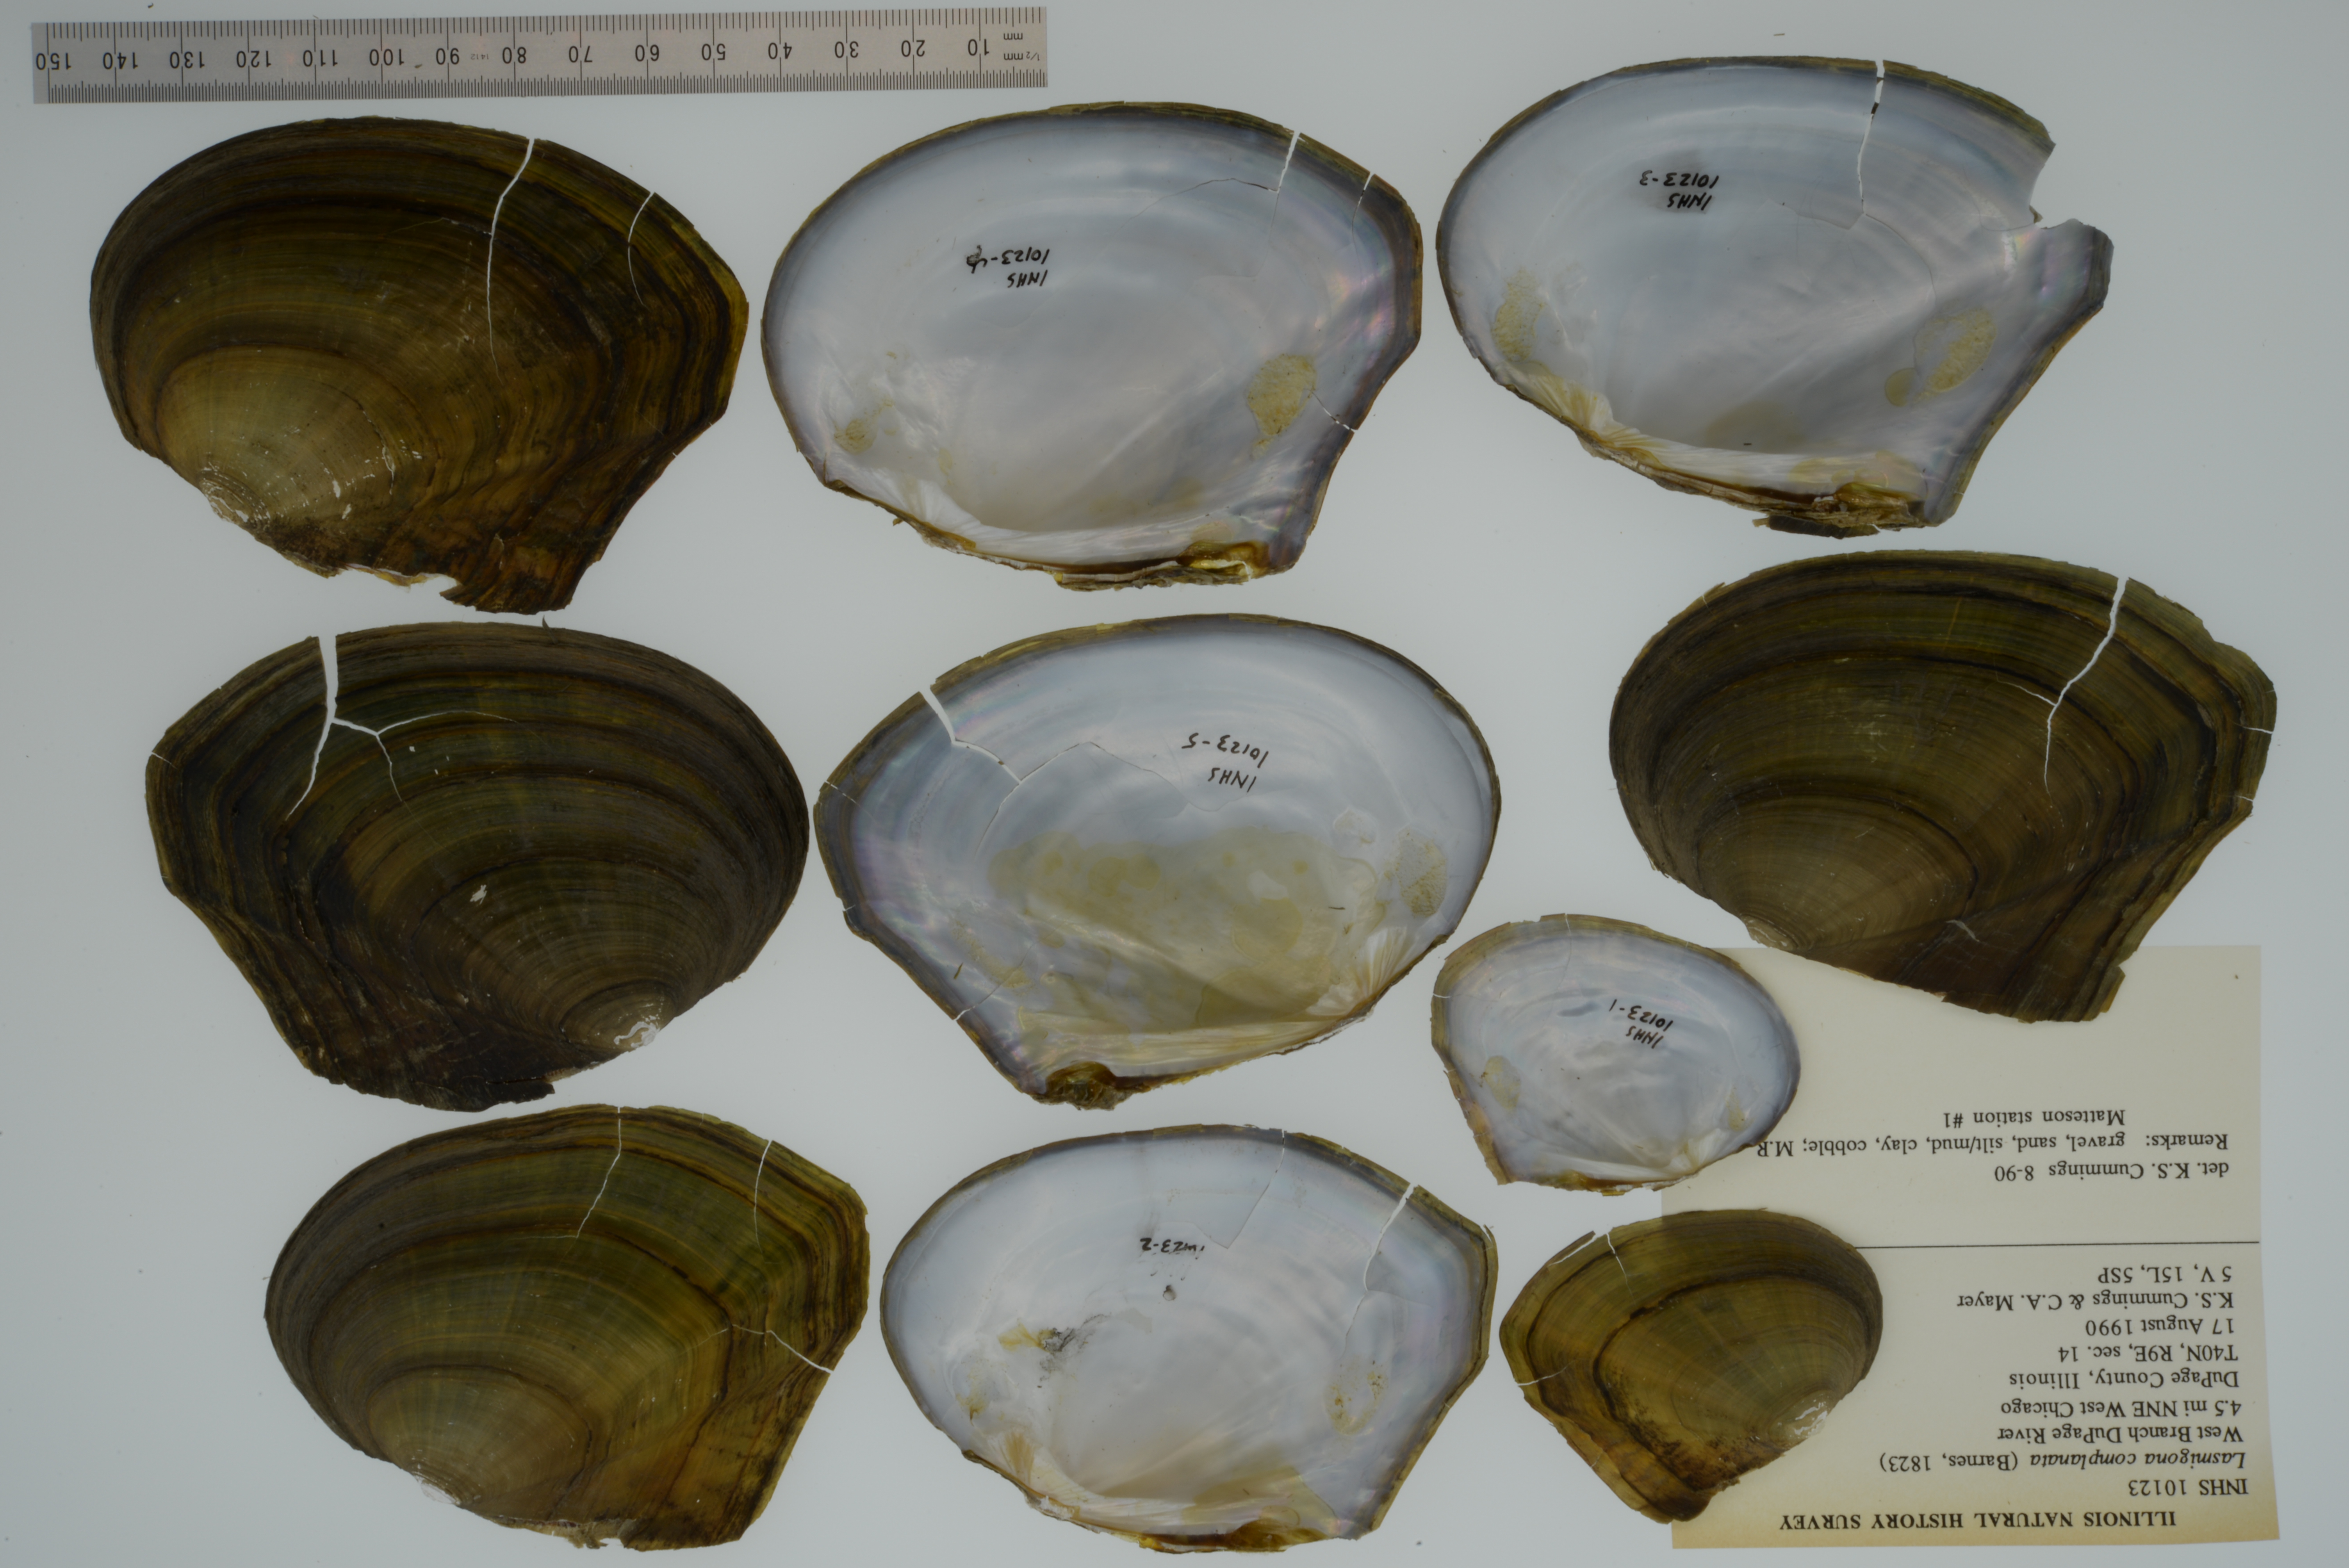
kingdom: Animalia
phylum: Mollusca
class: Bivalvia
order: Unionida
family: Unionidae
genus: Lasmigona
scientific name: Lasmigona complanata
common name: White heelsplitter
